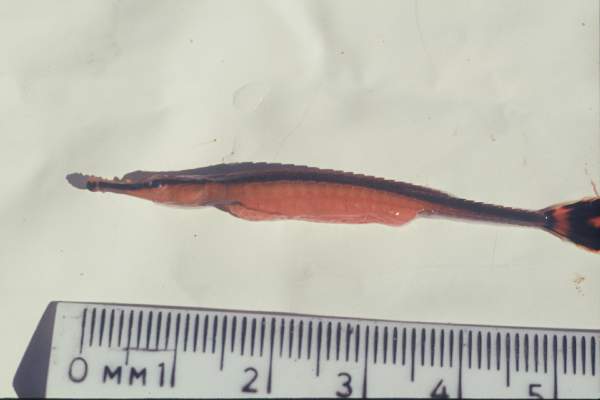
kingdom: Animalia
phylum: Chordata
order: Syngnathiformes
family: Syngnathidae
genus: Doryrhamphus
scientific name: Doryrhamphus excisus
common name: Bluestripe pipefish
